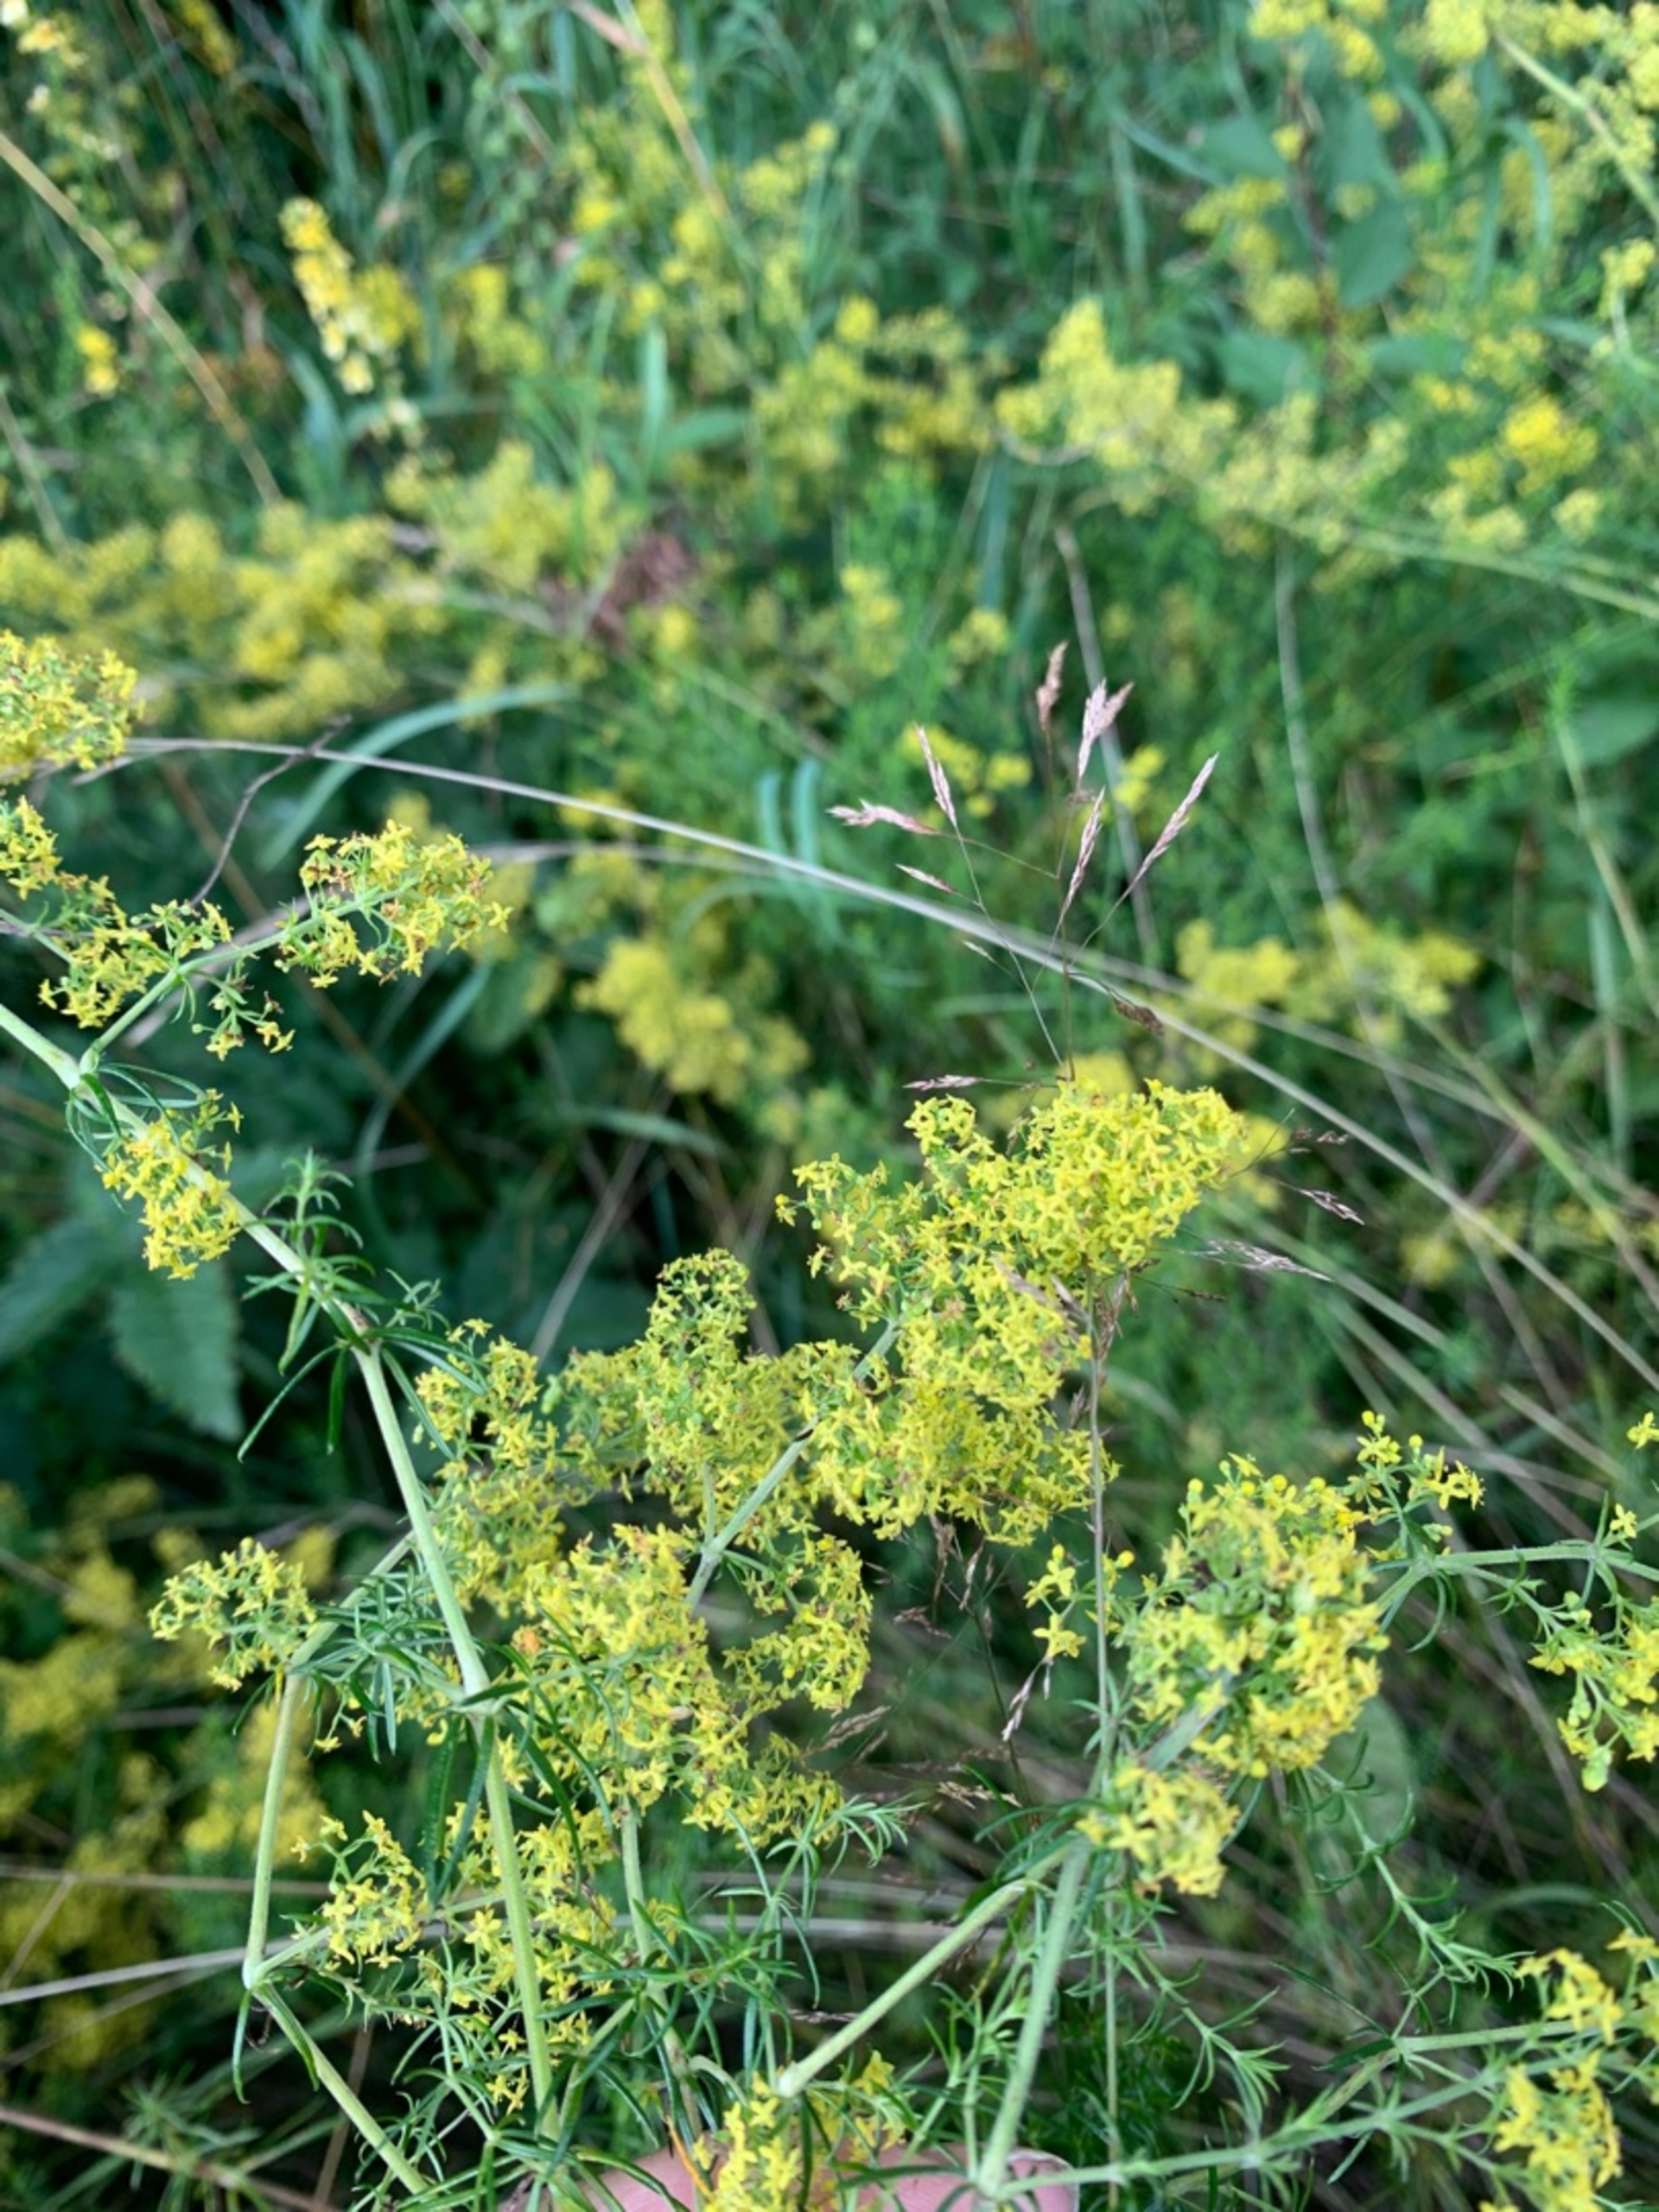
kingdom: Plantae
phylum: Tracheophyta
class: Magnoliopsida
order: Gentianales
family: Rubiaceae
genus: Galium
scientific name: Galium verum
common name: Gul snerre
